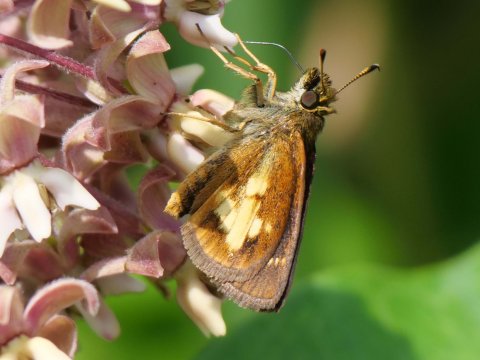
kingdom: Animalia
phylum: Arthropoda
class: Insecta
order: Lepidoptera
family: Hesperiidae
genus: Poanes
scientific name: Poanes massasoit
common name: Mulberry Wing
